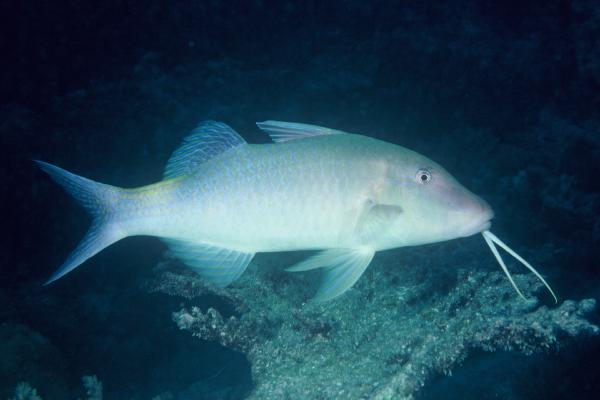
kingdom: Animalia
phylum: Chordata
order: Perciformes
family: Mullidae
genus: Parupeneus
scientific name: Parupeneus cyclostomus
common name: Goldsaddle goatfish
